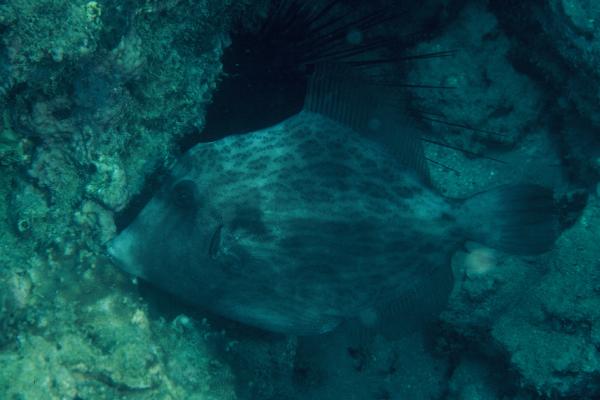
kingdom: Animalia
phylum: Chordata
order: Tetraodontiformes
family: Monacanthidae
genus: Stephanolepis
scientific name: Stephanolepis diaspros
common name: Reticulated leatherjacket
